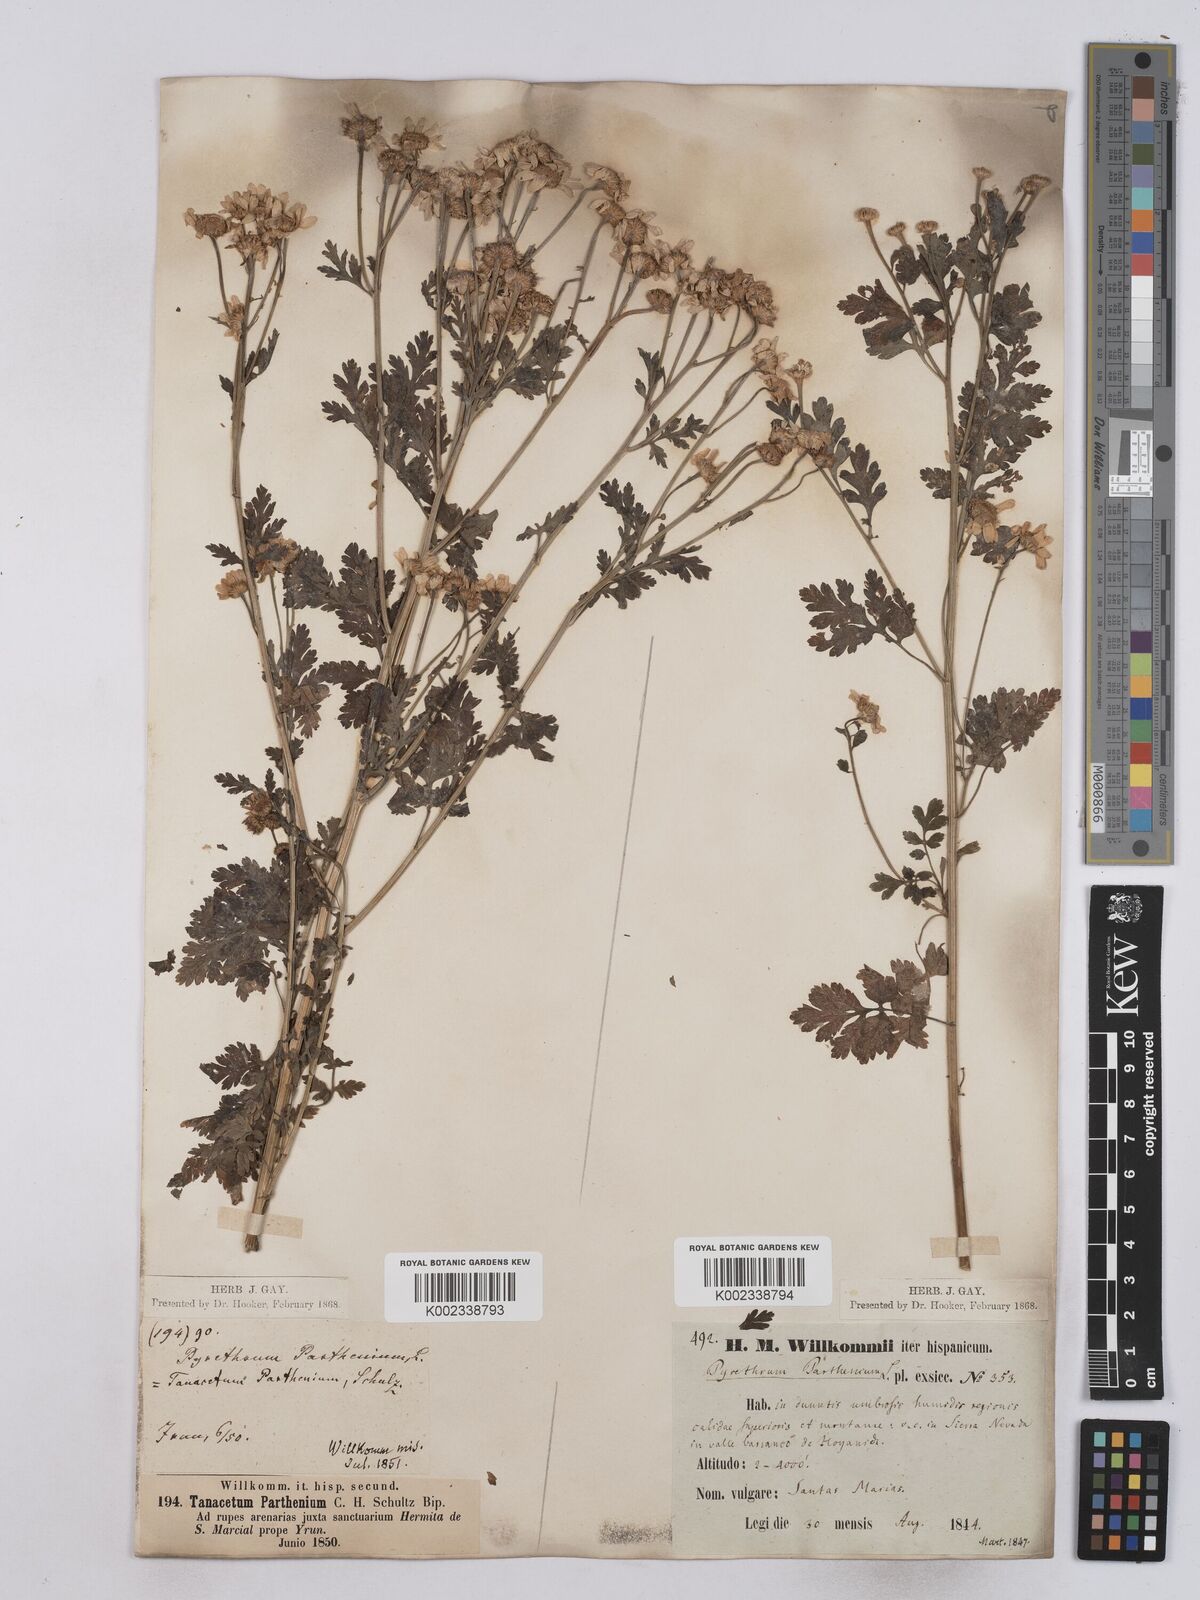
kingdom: Plantae
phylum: Tracheophyta
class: Magnoliopsida
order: Asterales
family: Asteraceae
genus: Tanacetum
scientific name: Tanacetum parthenium
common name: Feverfew
